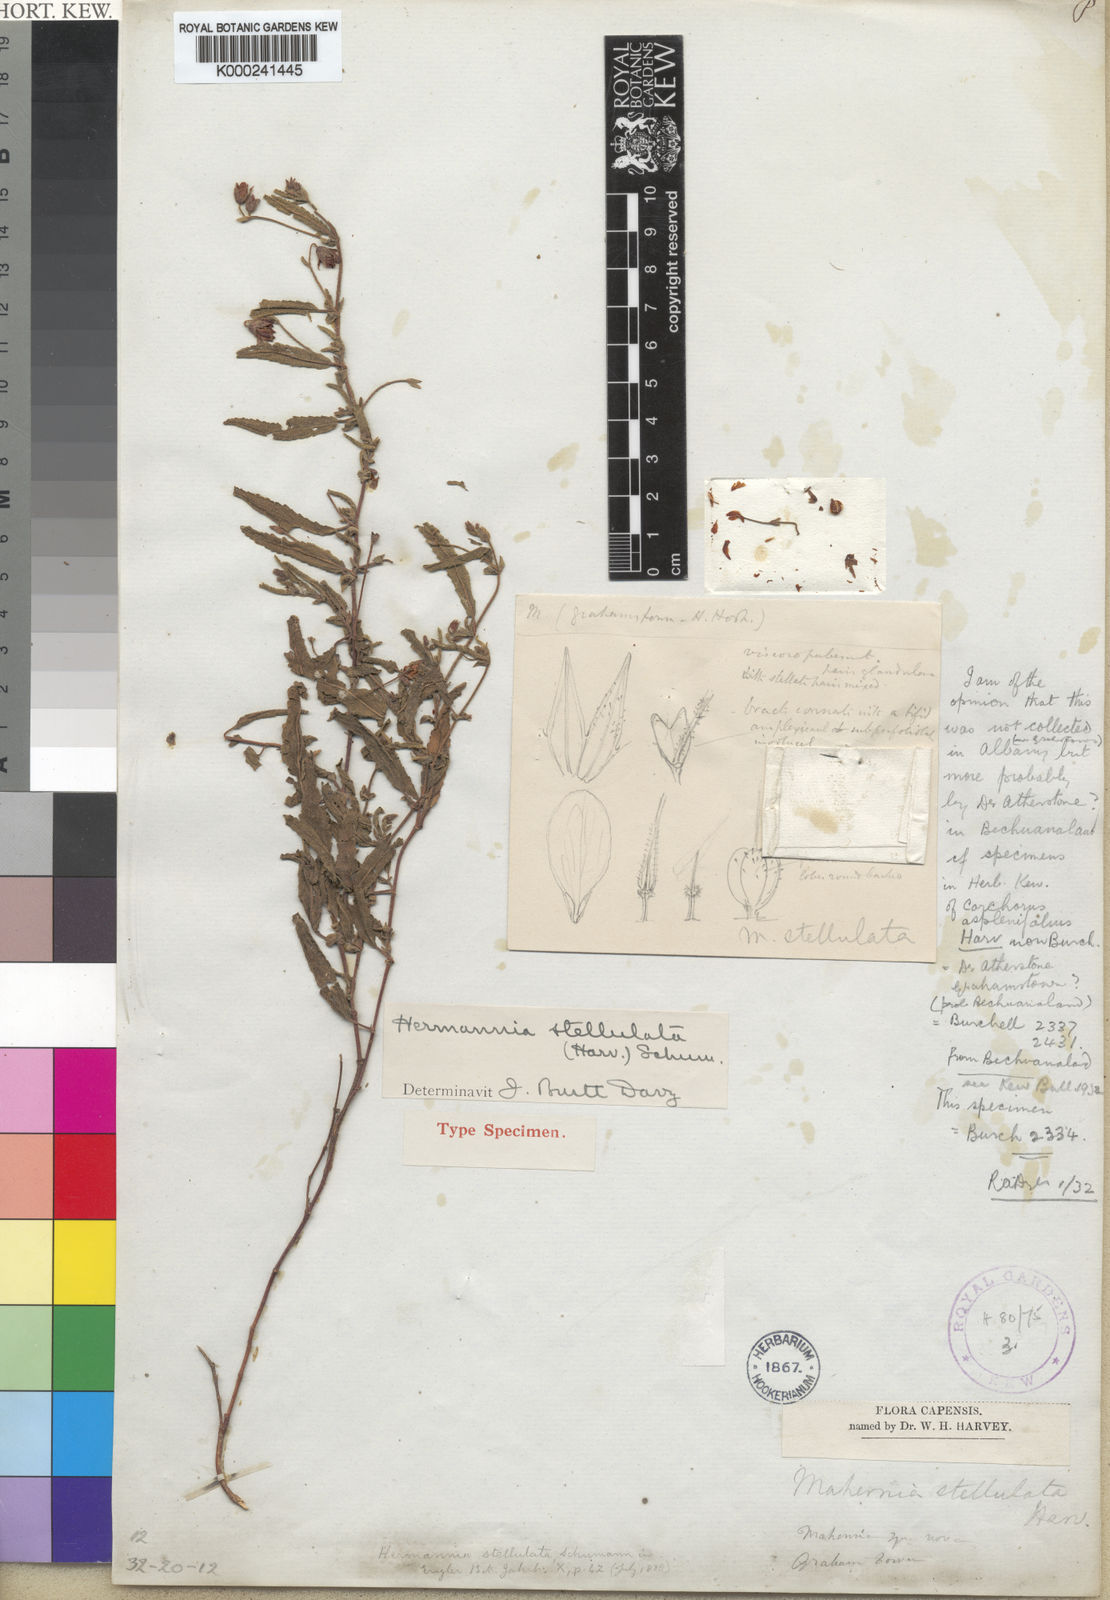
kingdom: Plantae
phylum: Tracheophyta
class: Magnoliopsida
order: Malvales
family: Malvaceae
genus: Hermannia
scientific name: Hermannia quartiniana
